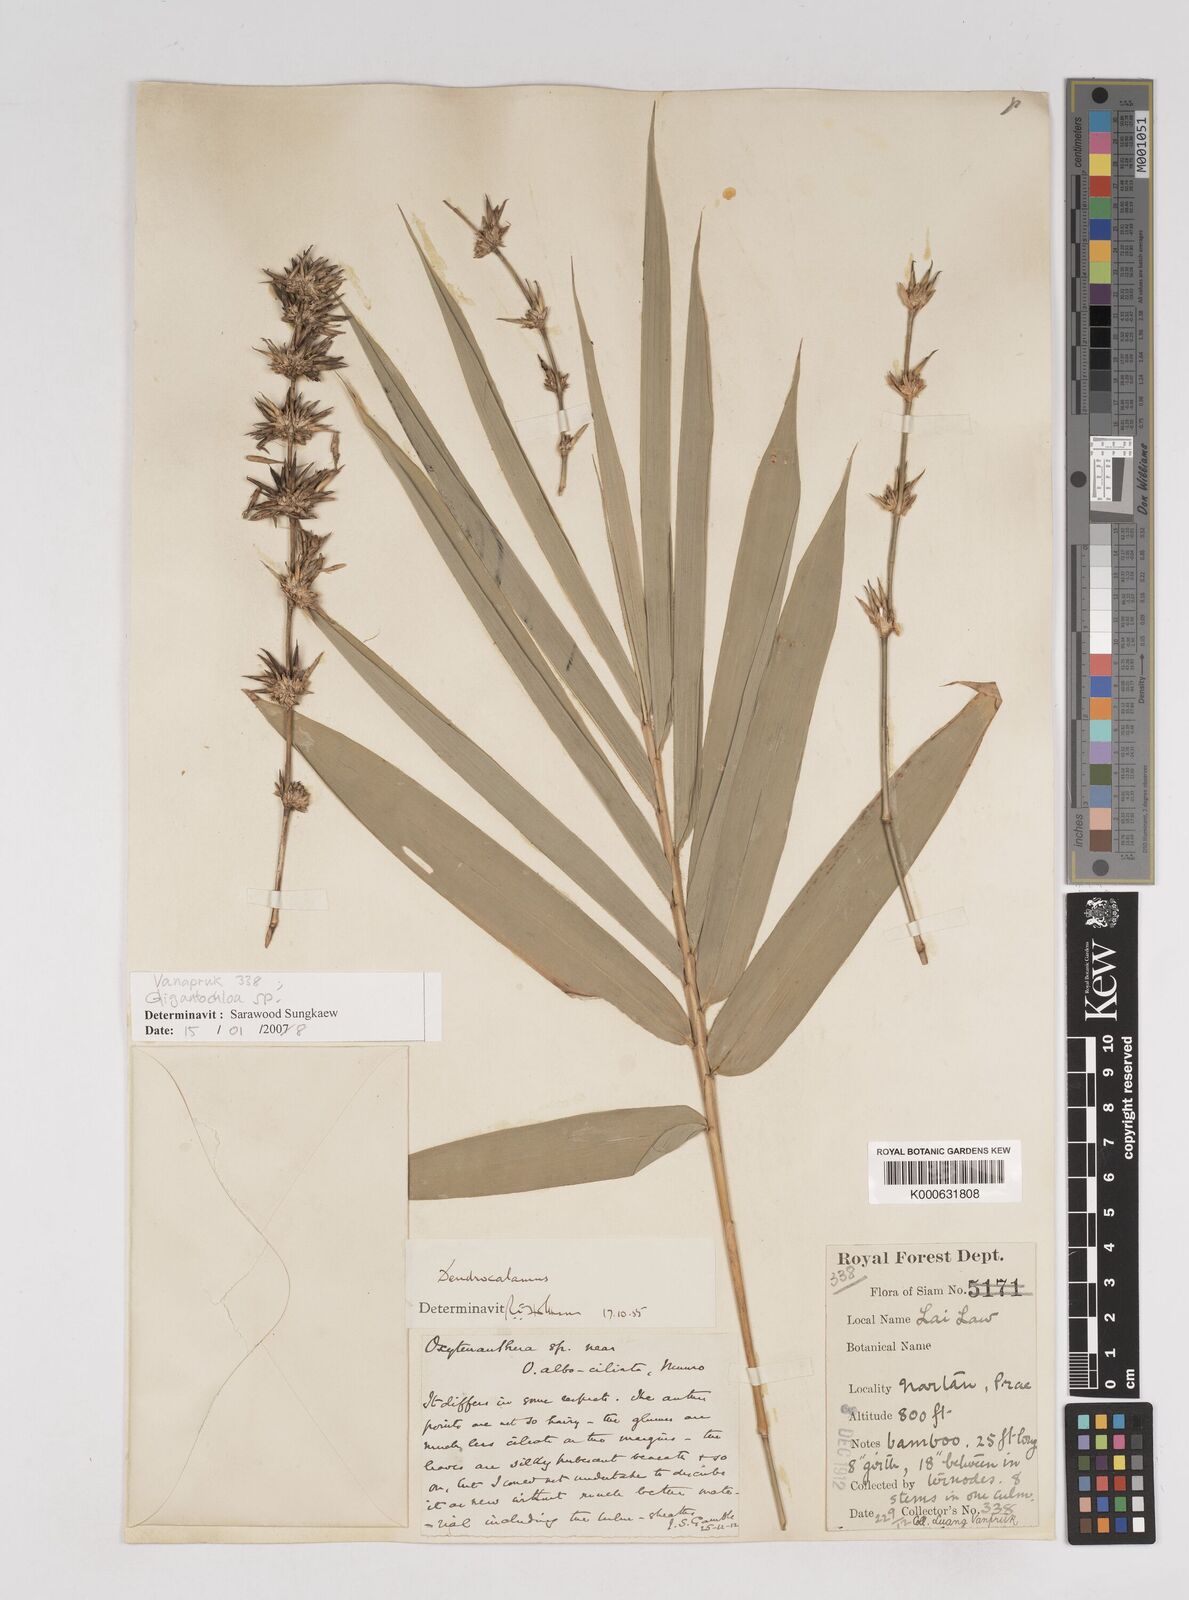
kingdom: Plantae
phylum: Tracheophyta
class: Liliopsida
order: Poales
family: Poaceae
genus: Gigantochloa
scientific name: Gigantochloa
